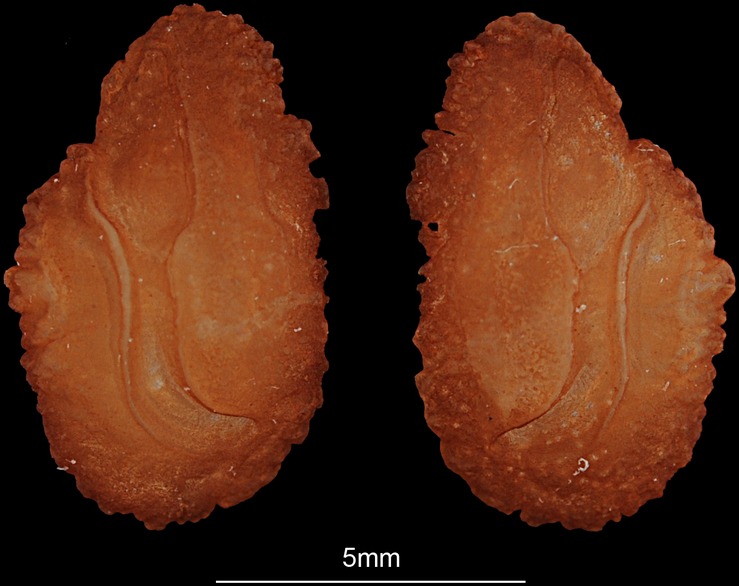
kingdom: Animalia
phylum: Chordata
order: Perciformes
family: Cichlidae
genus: Oreochromis
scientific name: Oreochromis niloticus
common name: Nile tilapia
